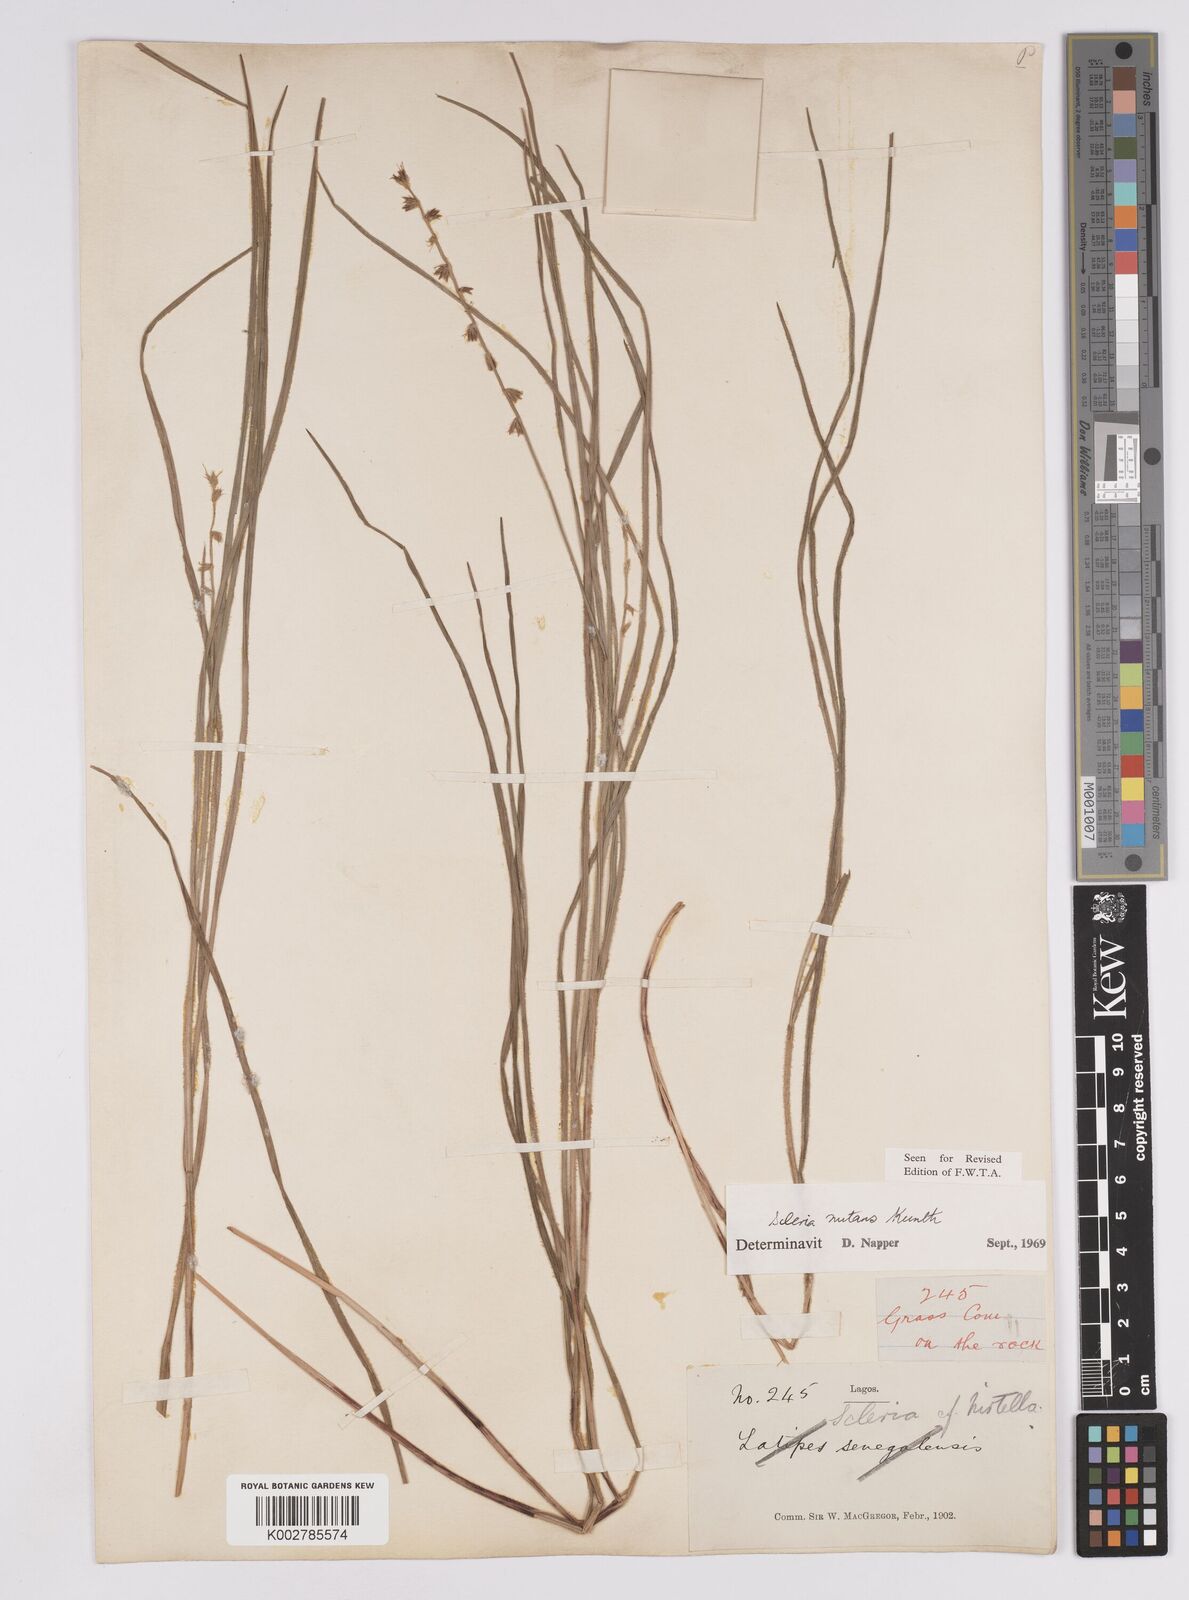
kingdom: Plantae
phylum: Tracheophyta
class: Liliopsida
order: Poales
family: Cyperaceae
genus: Scleria
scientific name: Scleria distans
